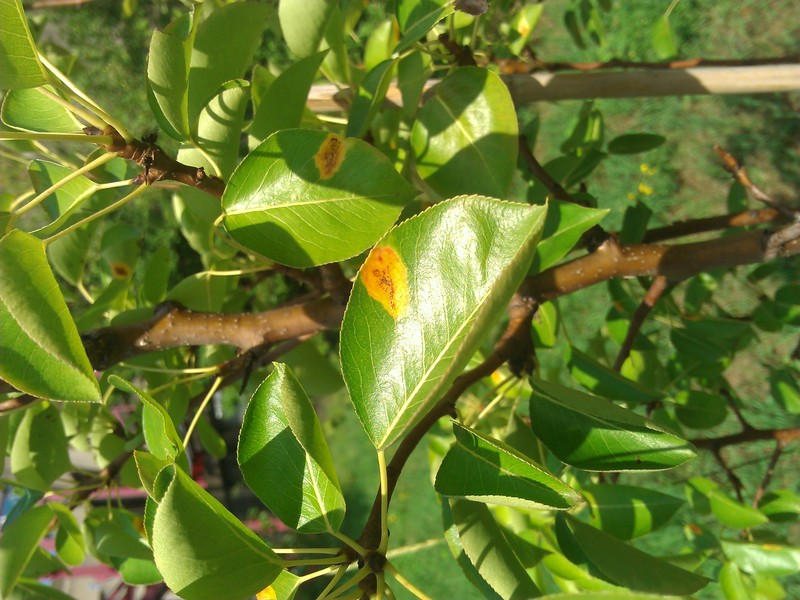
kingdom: Fungi
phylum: Basidiomycota
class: Pucciniomycetes
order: Pucciniales
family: Gymnosporangiaceae
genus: Gymnosporangium
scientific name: Gymnosporangium sabinae
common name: Pear trellis rust fungus
